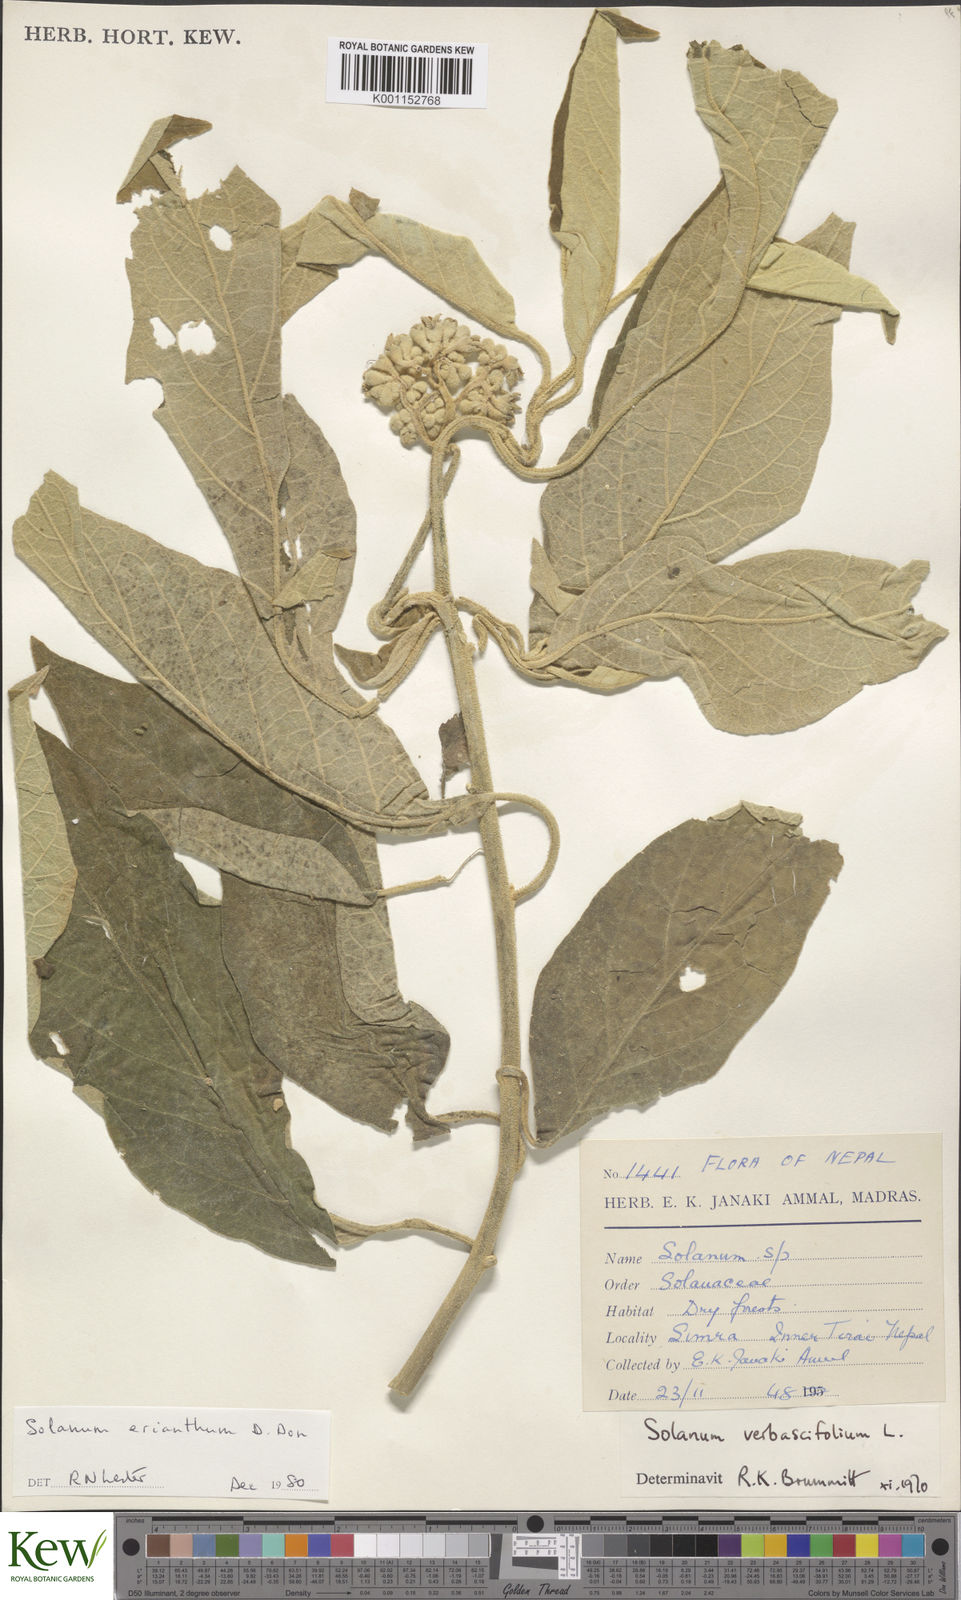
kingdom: Plantae
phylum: Tracheophyta
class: Magnoliopsida
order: Solanales
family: Solanaceae
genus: Solanum
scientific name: Solanum erianthum
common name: Tobacco-tree
